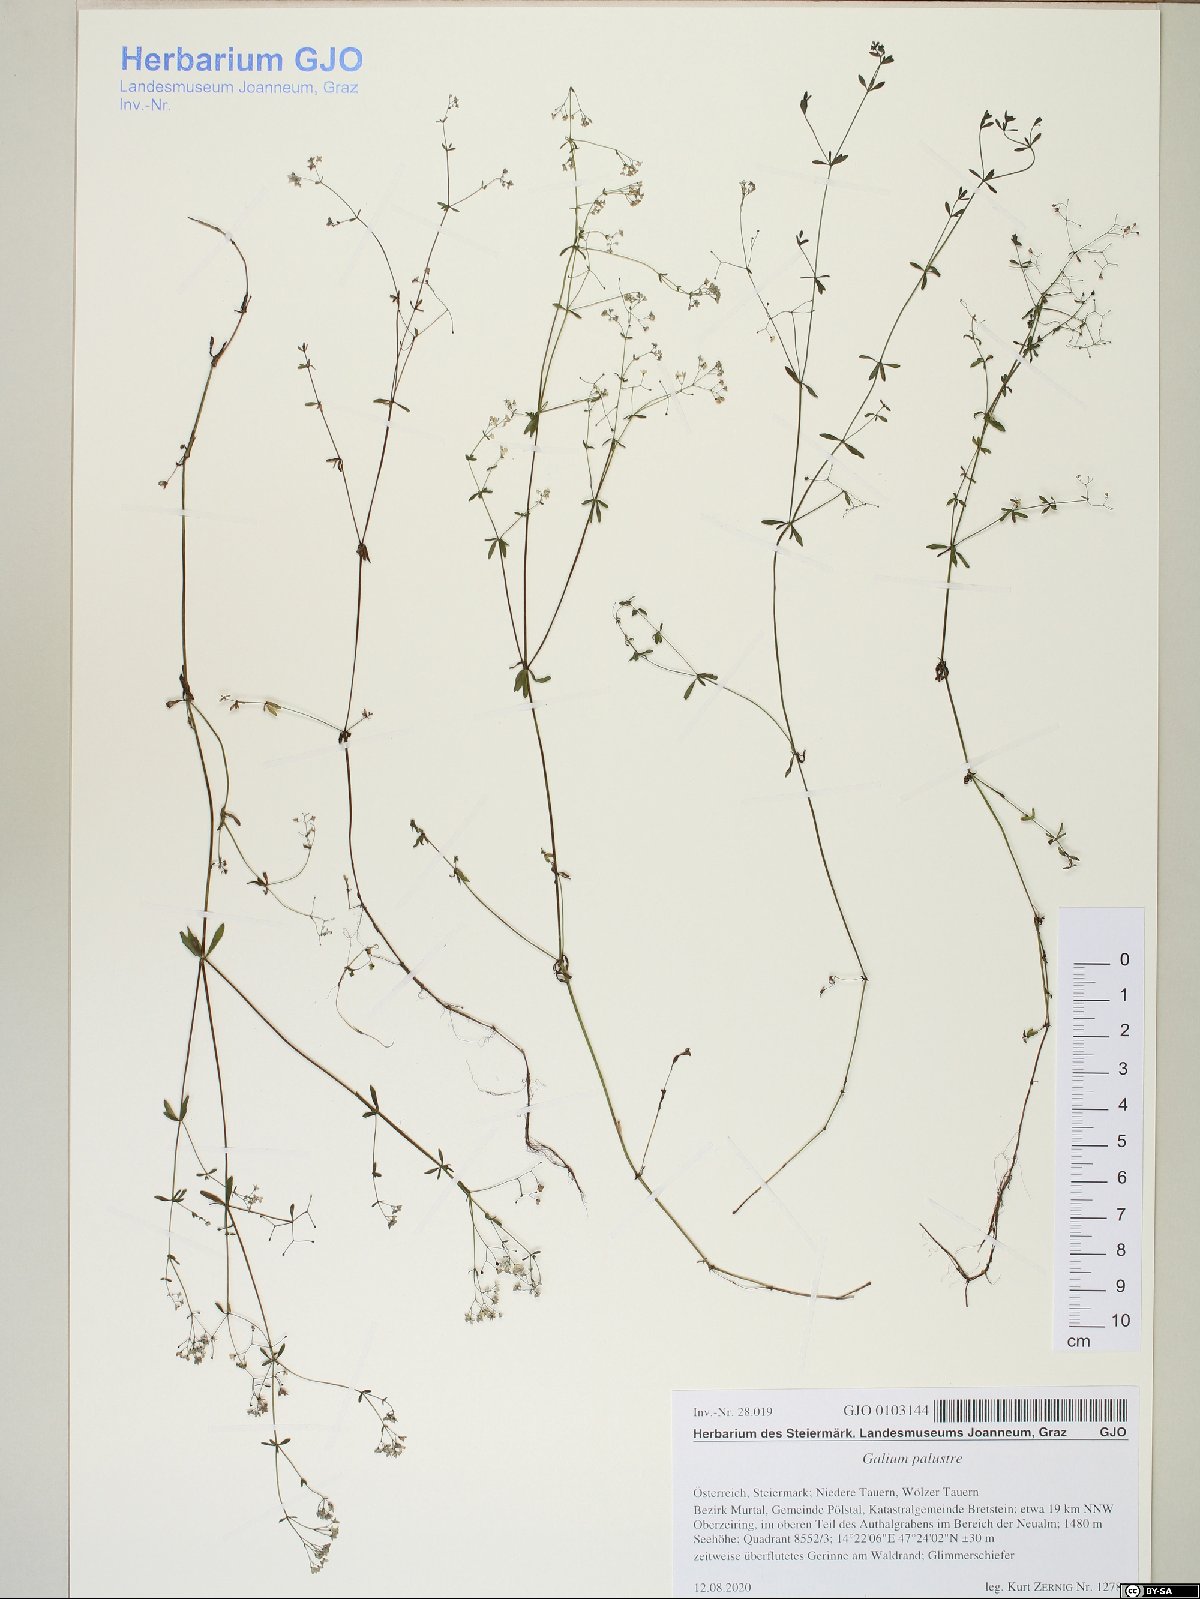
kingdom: Plantae
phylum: Tracheophyta
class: Magnoliopsida
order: Gentianales
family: Rubiaceae
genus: Galium
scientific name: Galium palustre
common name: Common marsh-bedstraw
